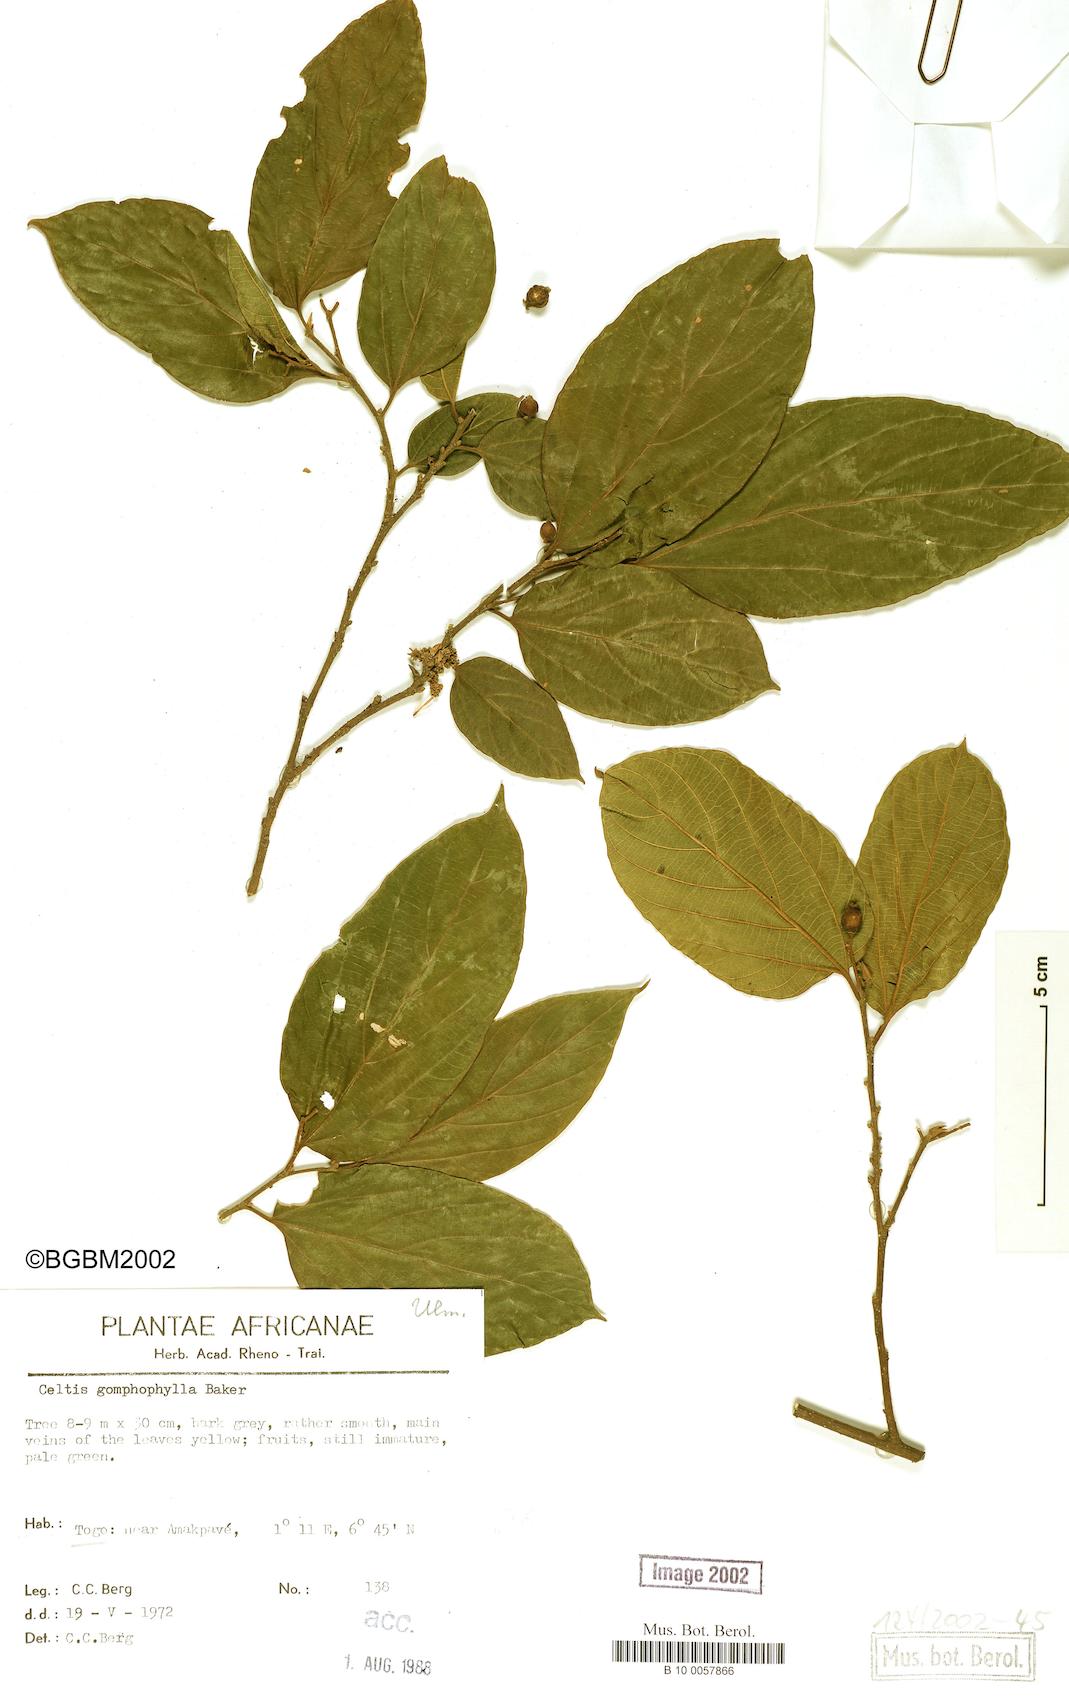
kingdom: Plantae
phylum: Tracheophyta
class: Magnoliopsida
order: Rosales
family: Cannabaceae
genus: Celtis
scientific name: Celtis gomphophylla
